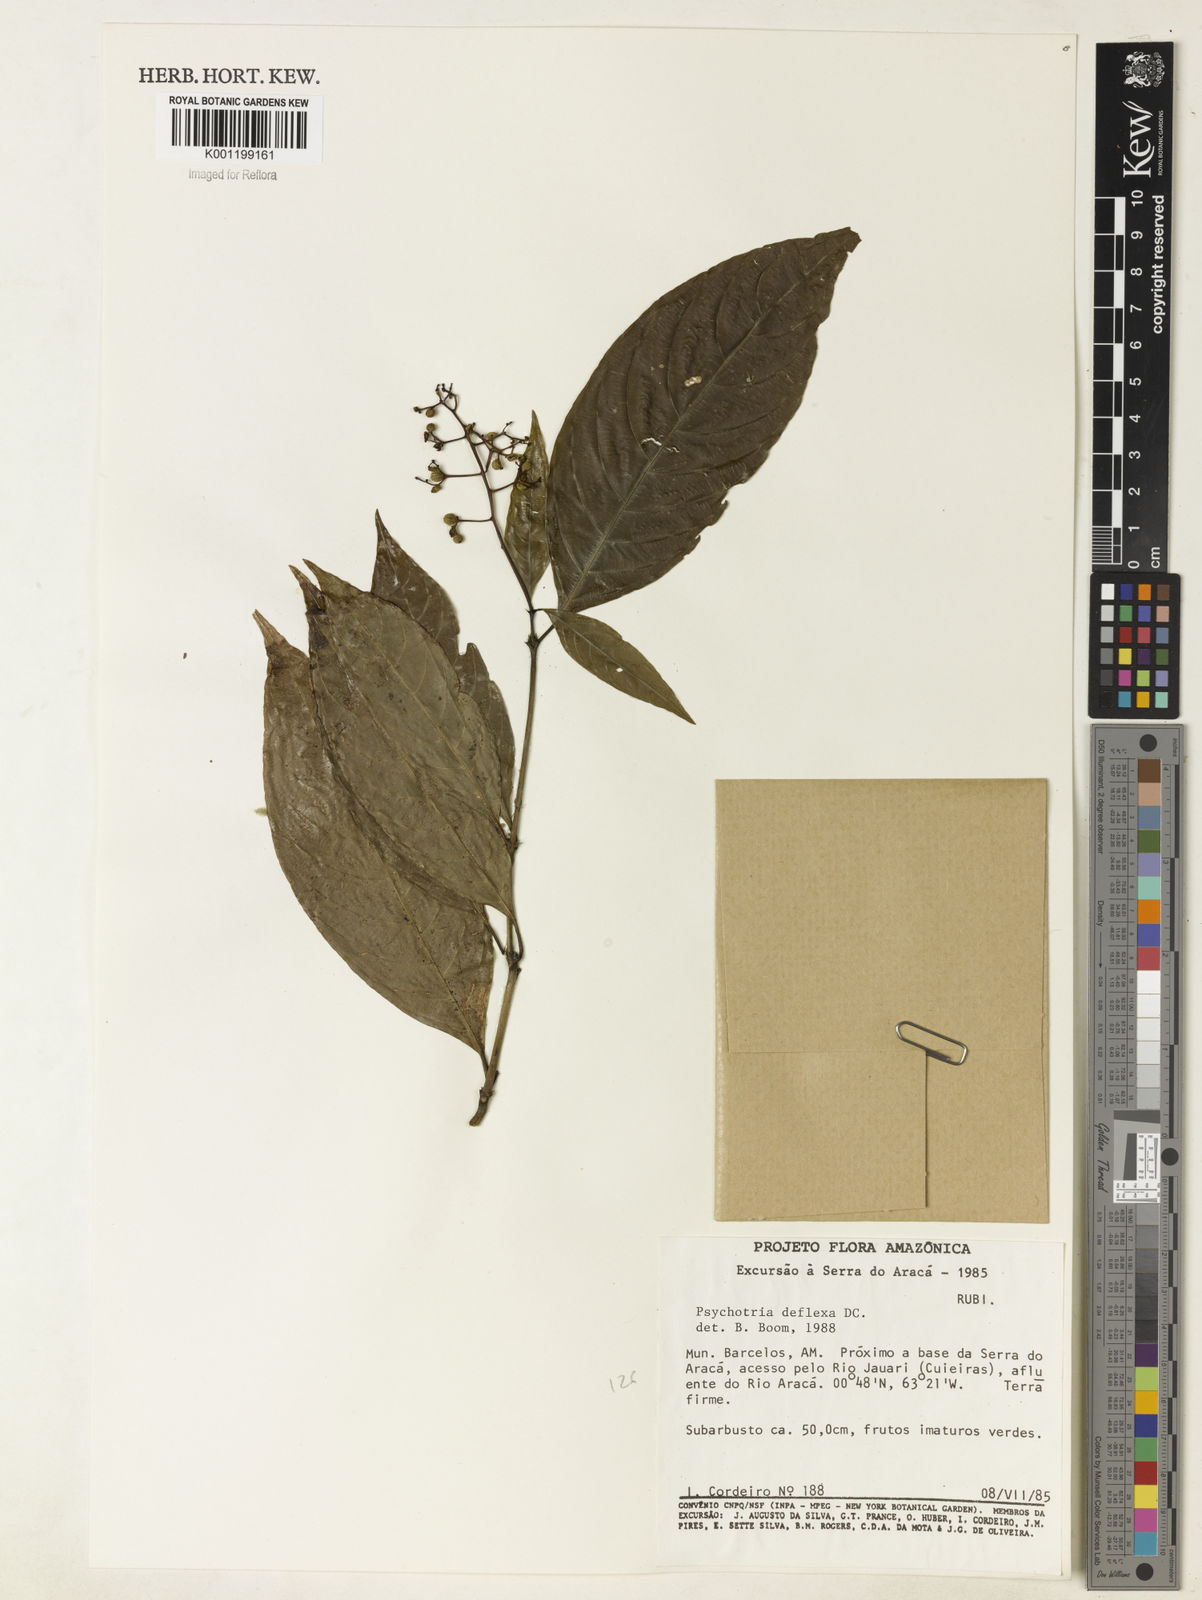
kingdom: Plantae
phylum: Tracheophyta
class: Magnoliopsida
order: Gentianales
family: Rubiaceae
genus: Palicourea
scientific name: Palicourea deflexa
